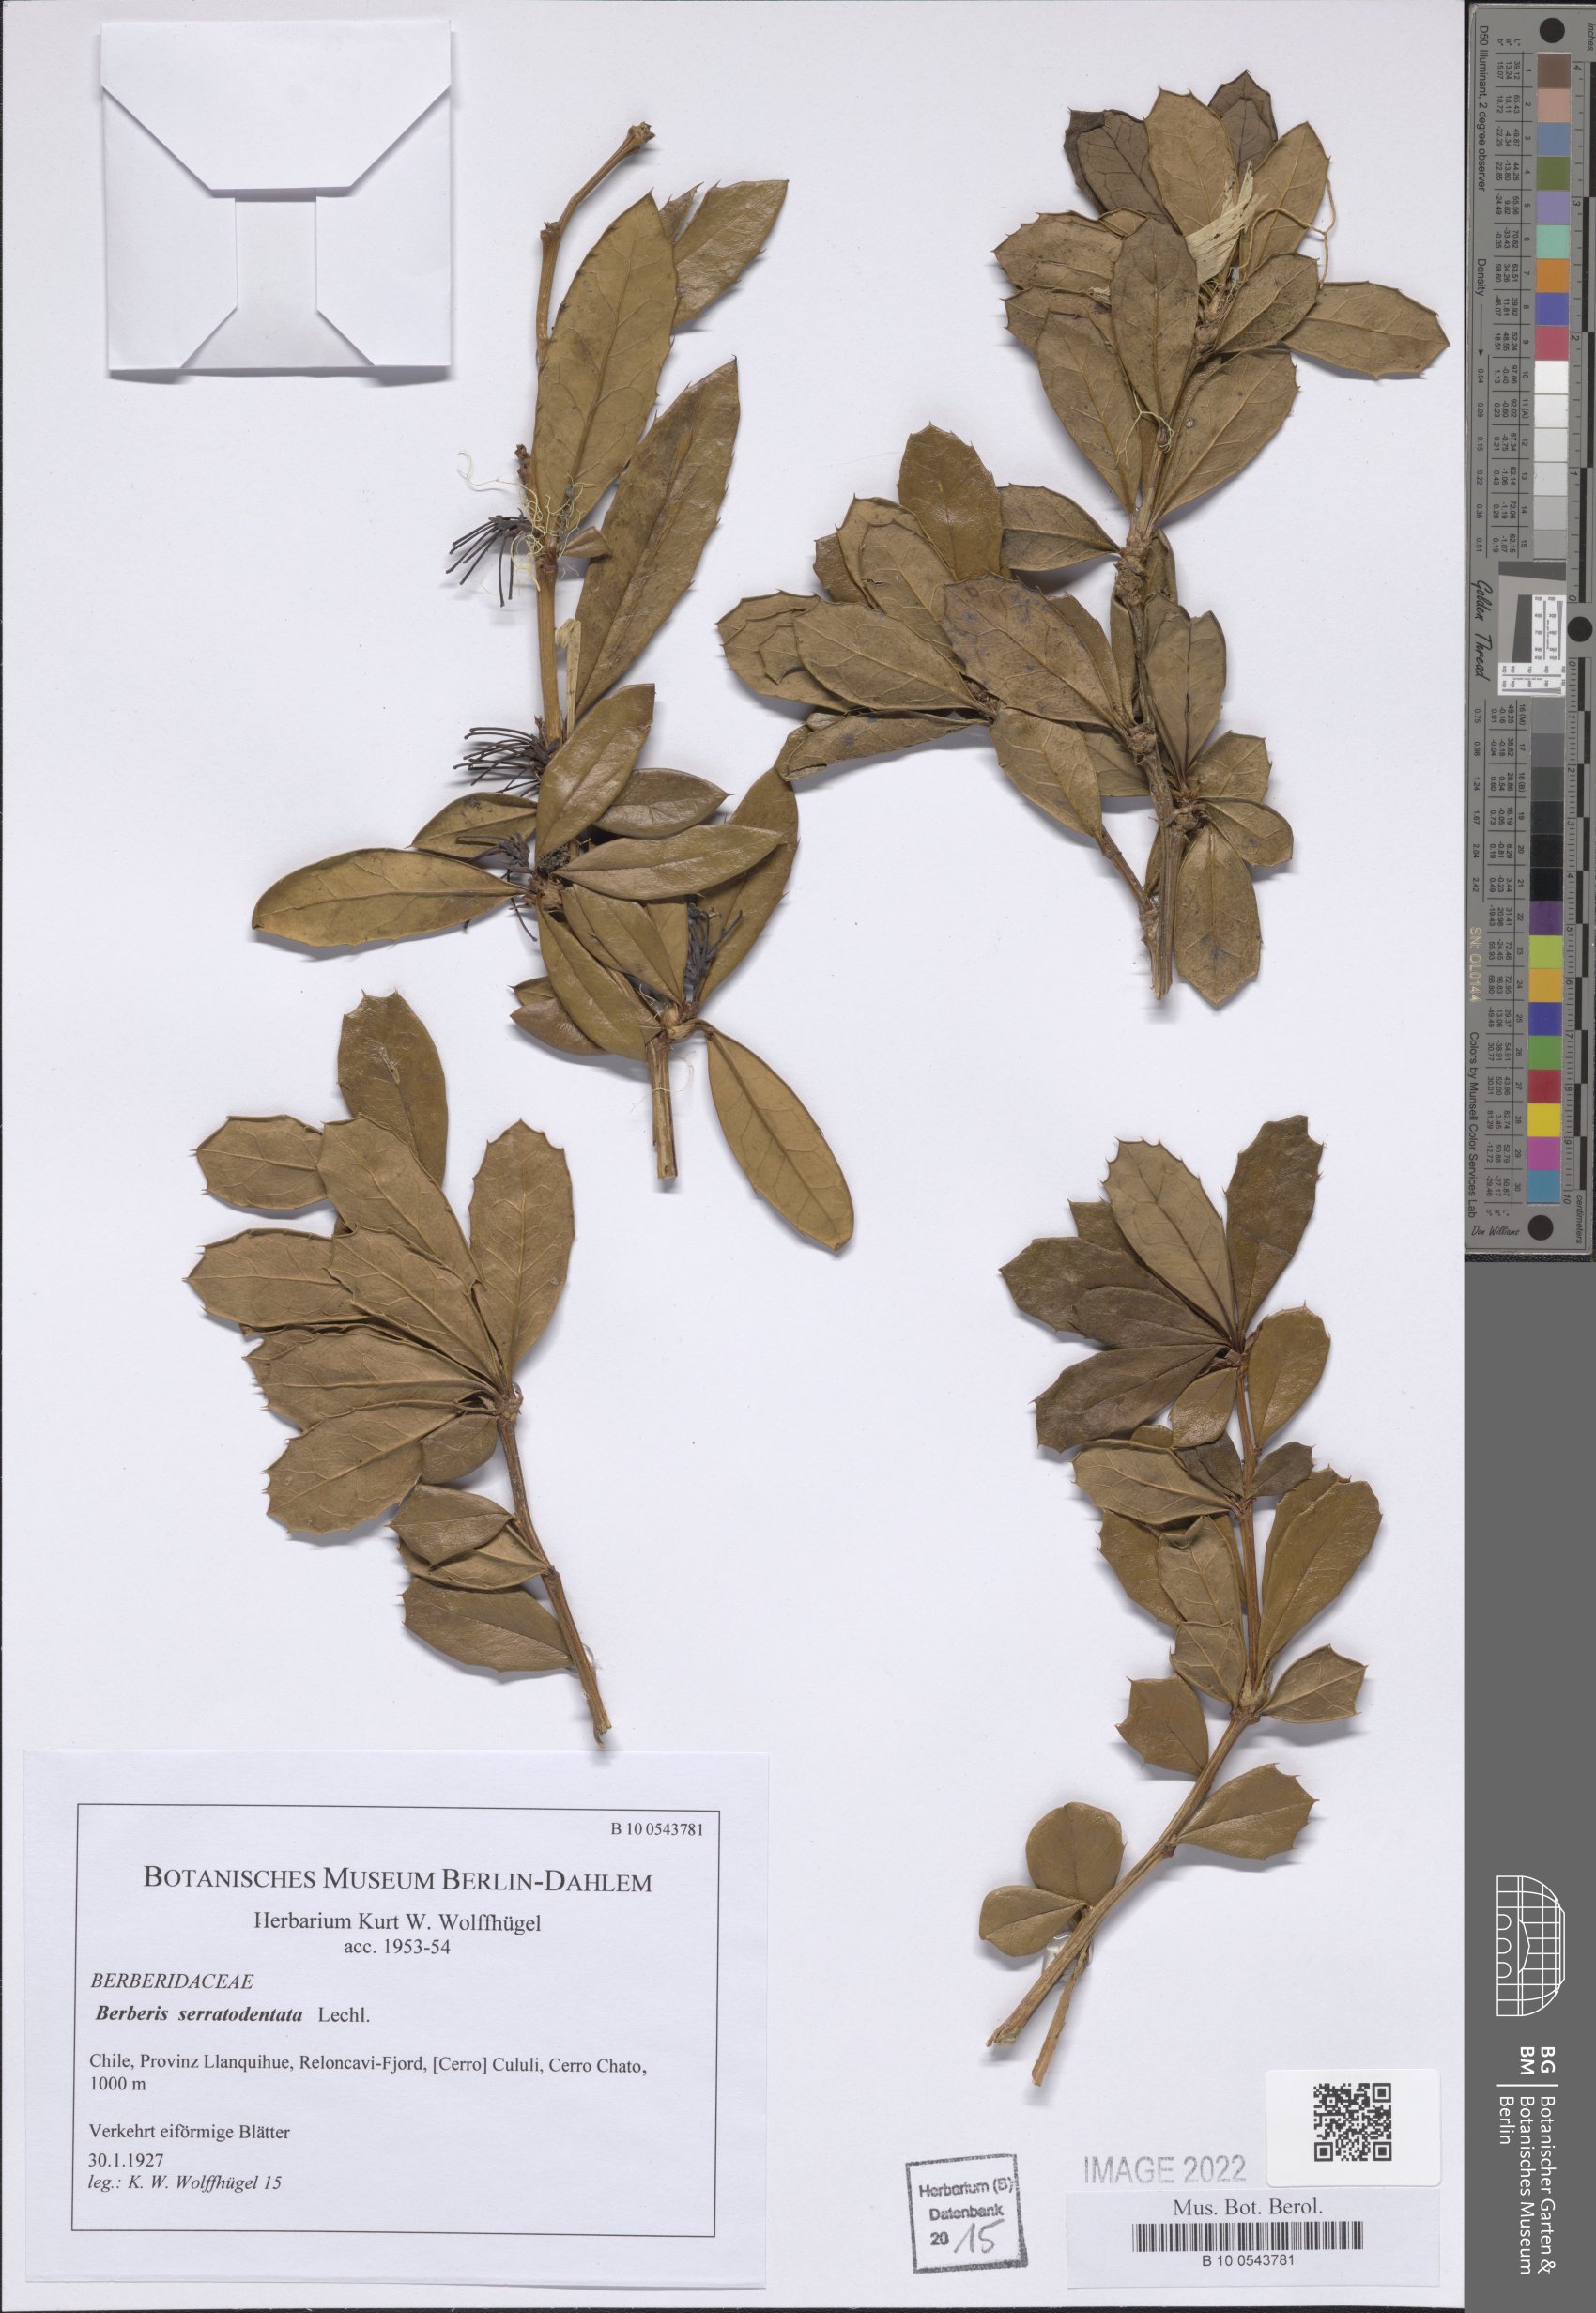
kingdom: Plantae
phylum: Tracheophyta
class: Magnoliopsida
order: Ranunculales
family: Berberidaceae
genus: Berberis
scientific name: Berberis serratodentata
